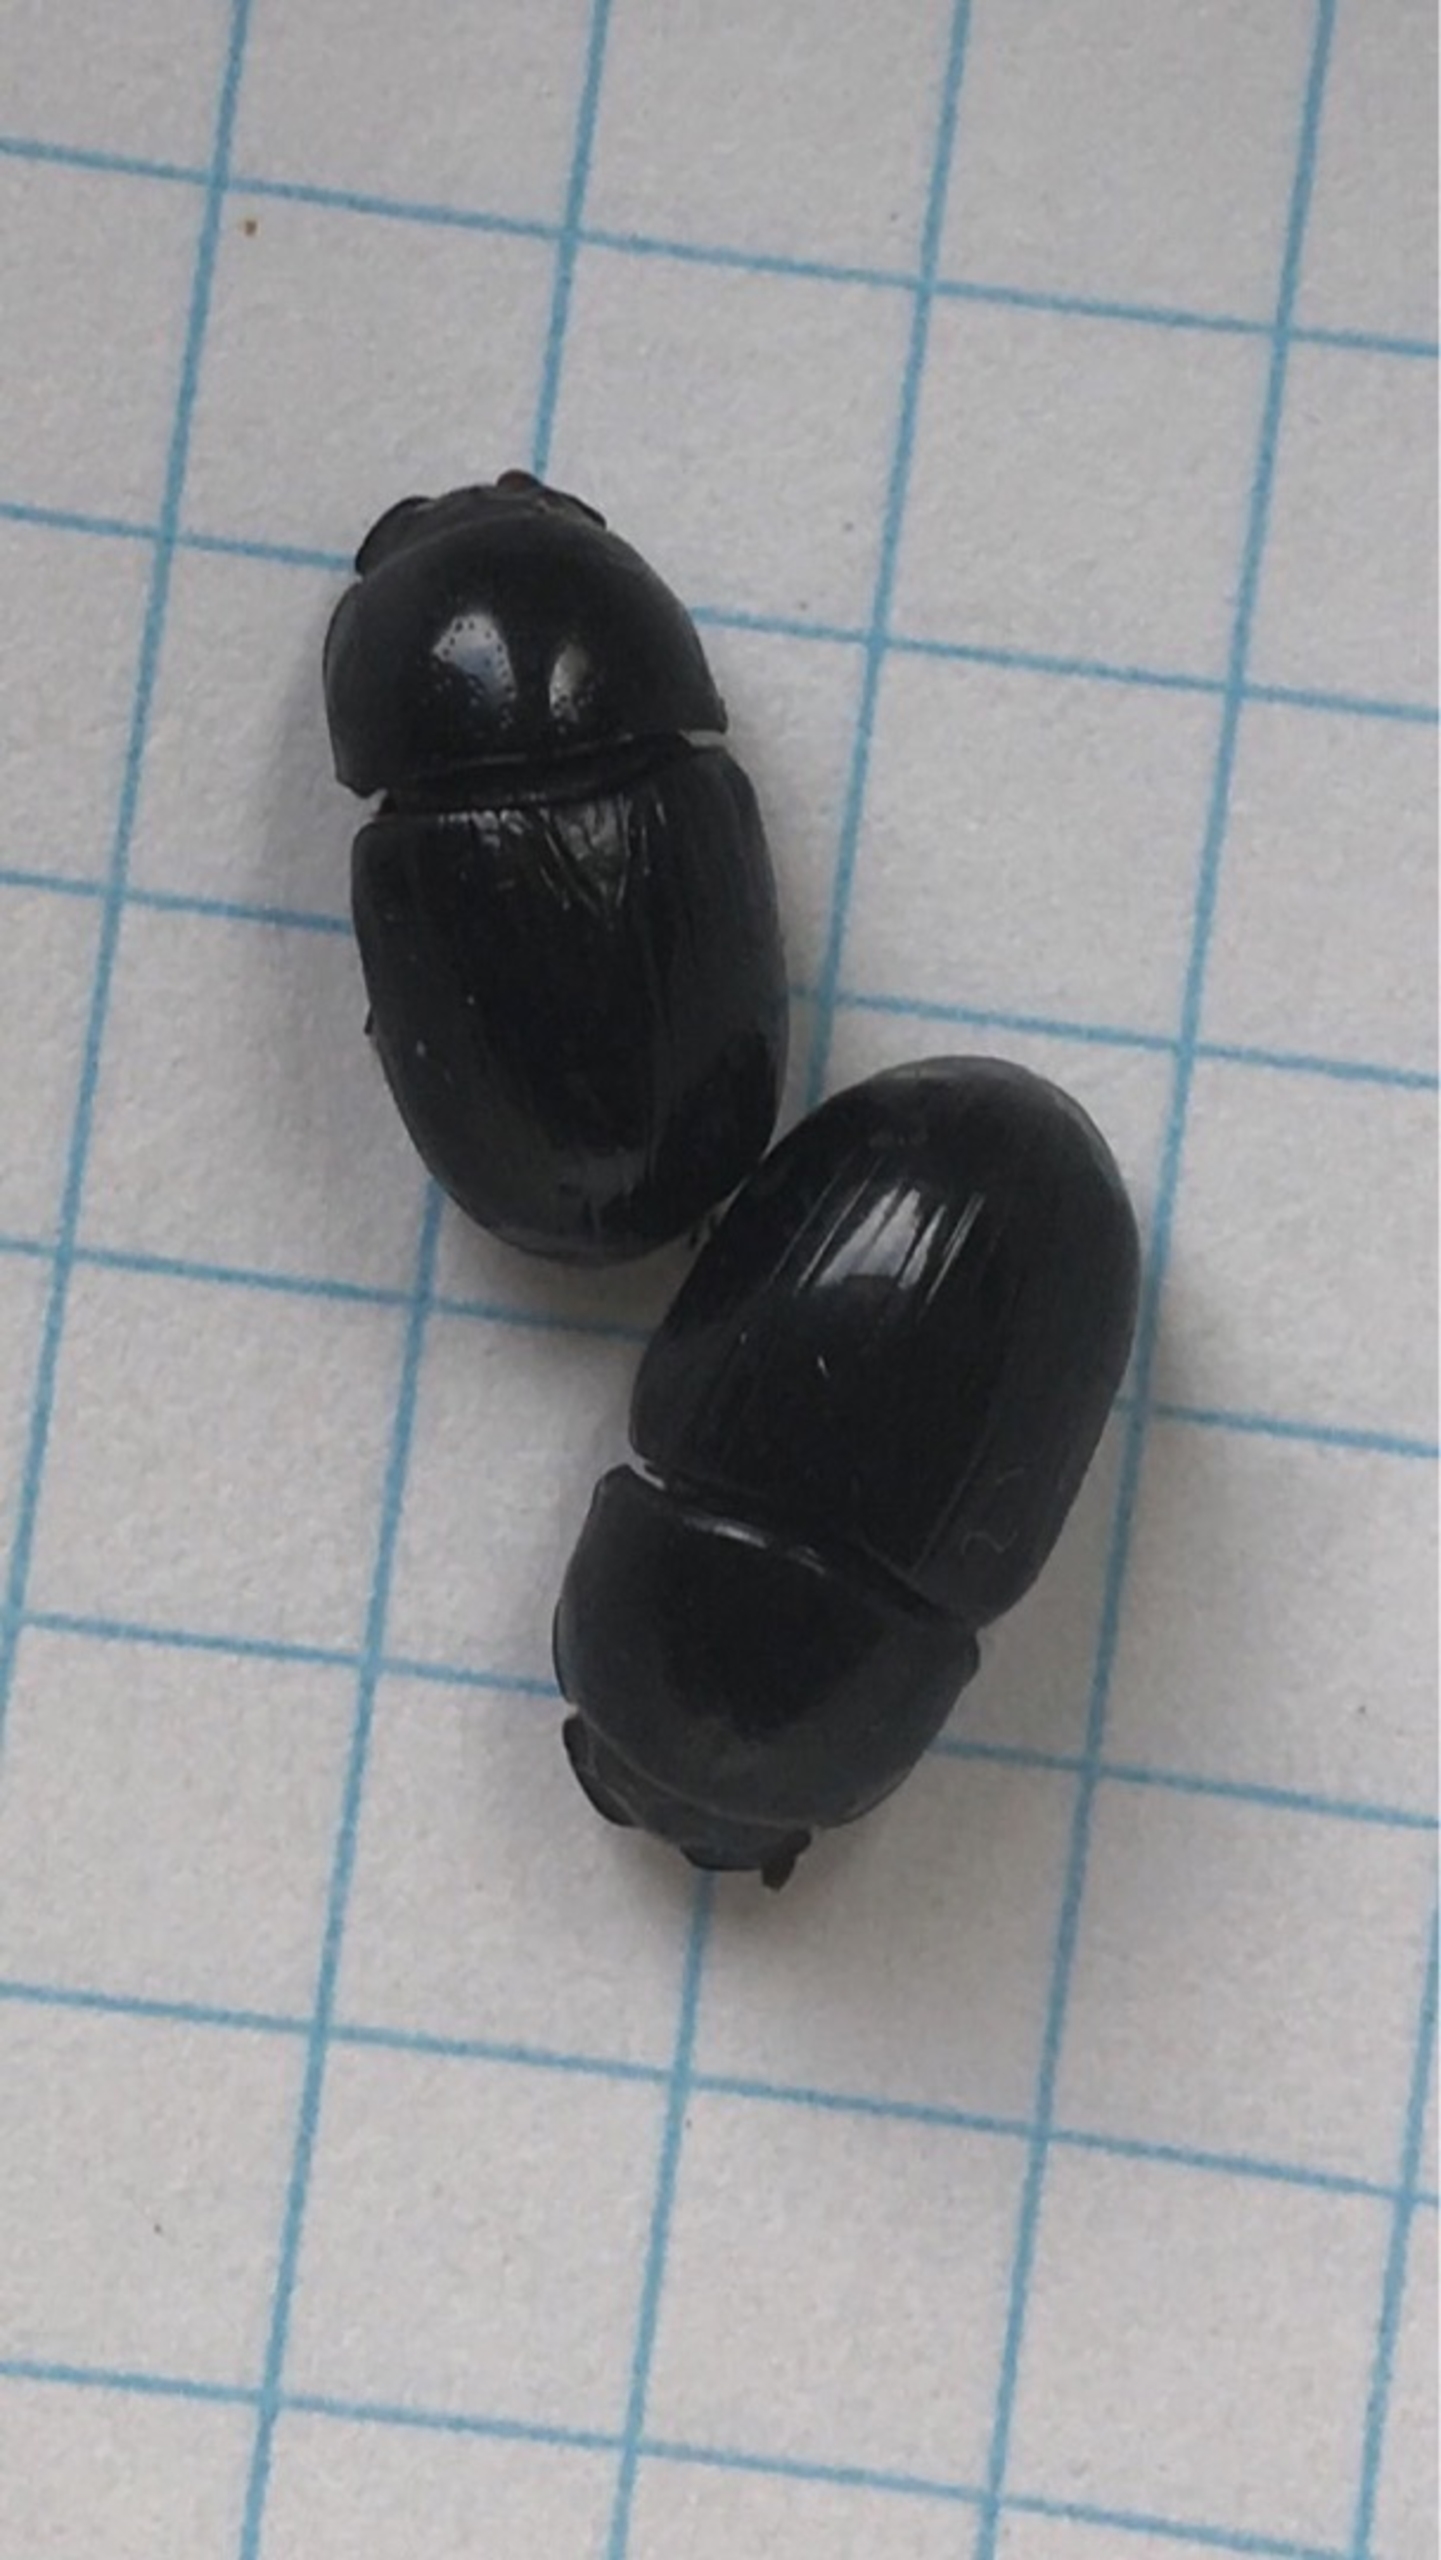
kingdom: Animalia
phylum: Arthropoda
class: Insecta
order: Coleoptera
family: Scarabaeidae
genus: Teuchestes
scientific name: Teuchestes fossor
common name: Stor møgbille
